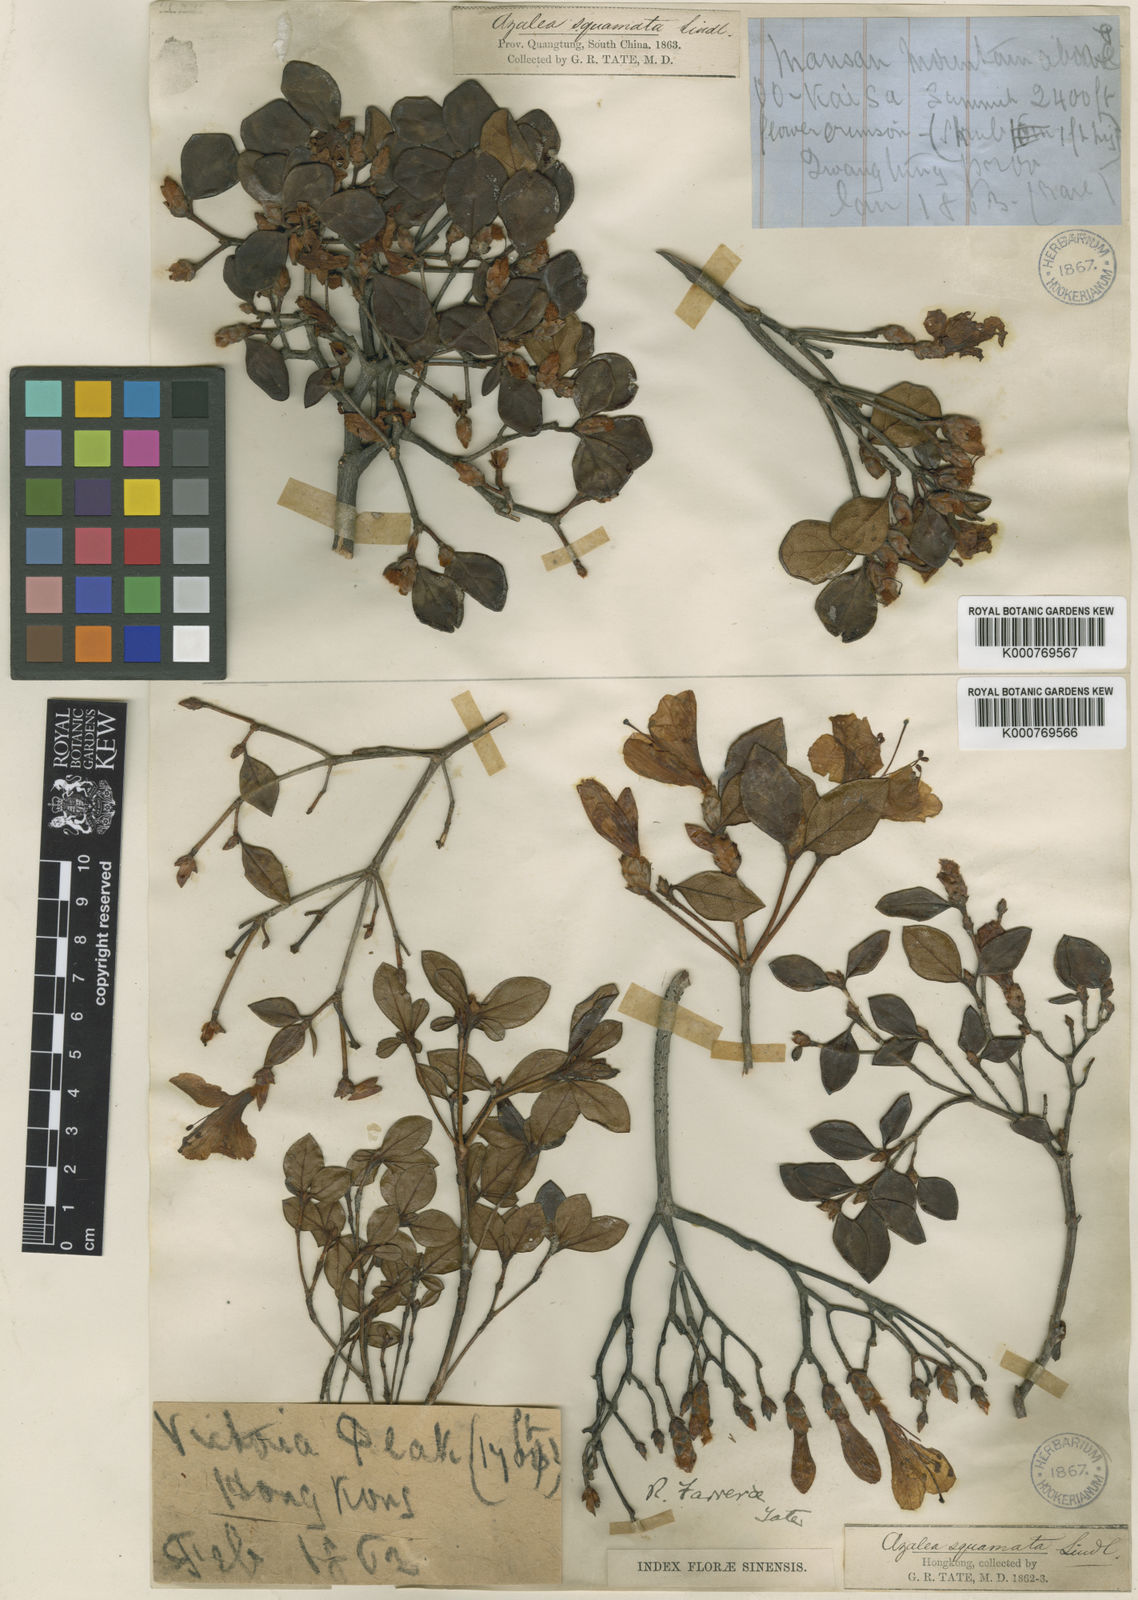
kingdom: Plantae
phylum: Tracheophyta
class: Magnoliopsida
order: Ericales
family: Ericaceae
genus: Rhododendron
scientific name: Rhododendron farrerae
